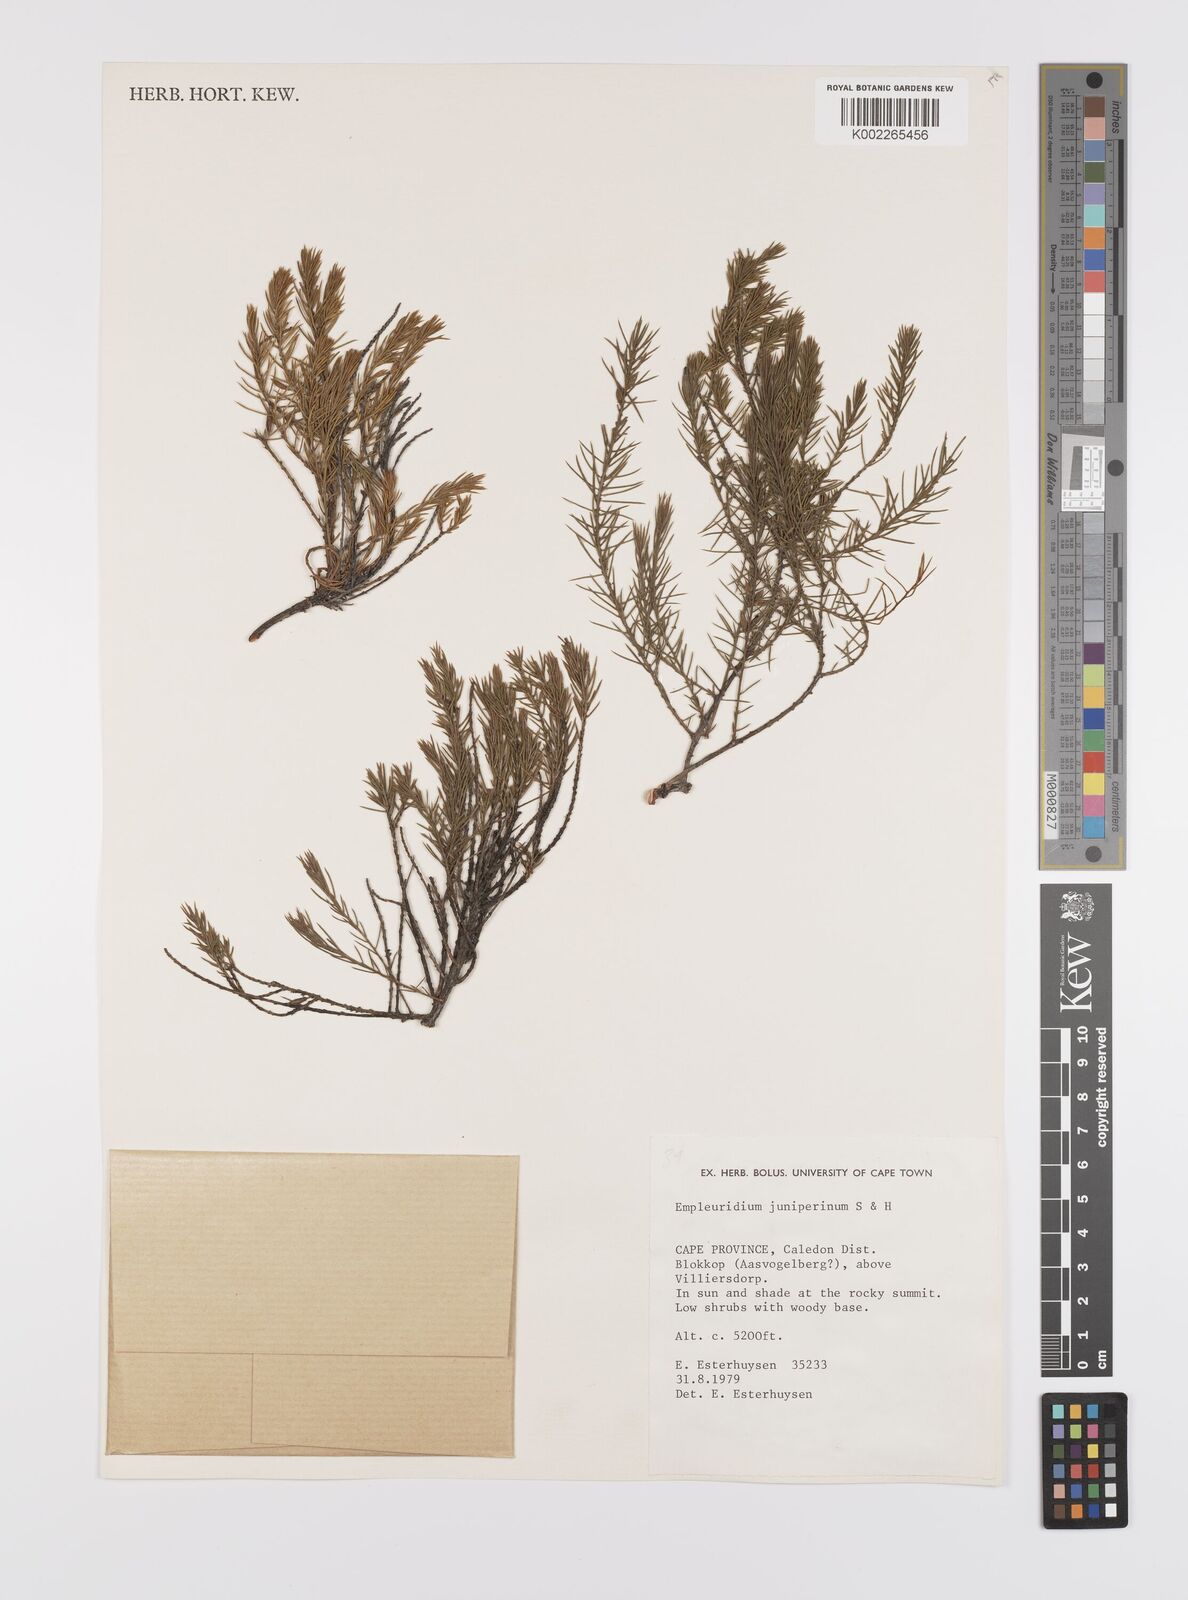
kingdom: Plantae
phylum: Tracheophyta
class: Magnoliopsida
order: Celastrales
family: Celastraceae
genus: Empleuridium
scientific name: Empleuridium juniperinum
